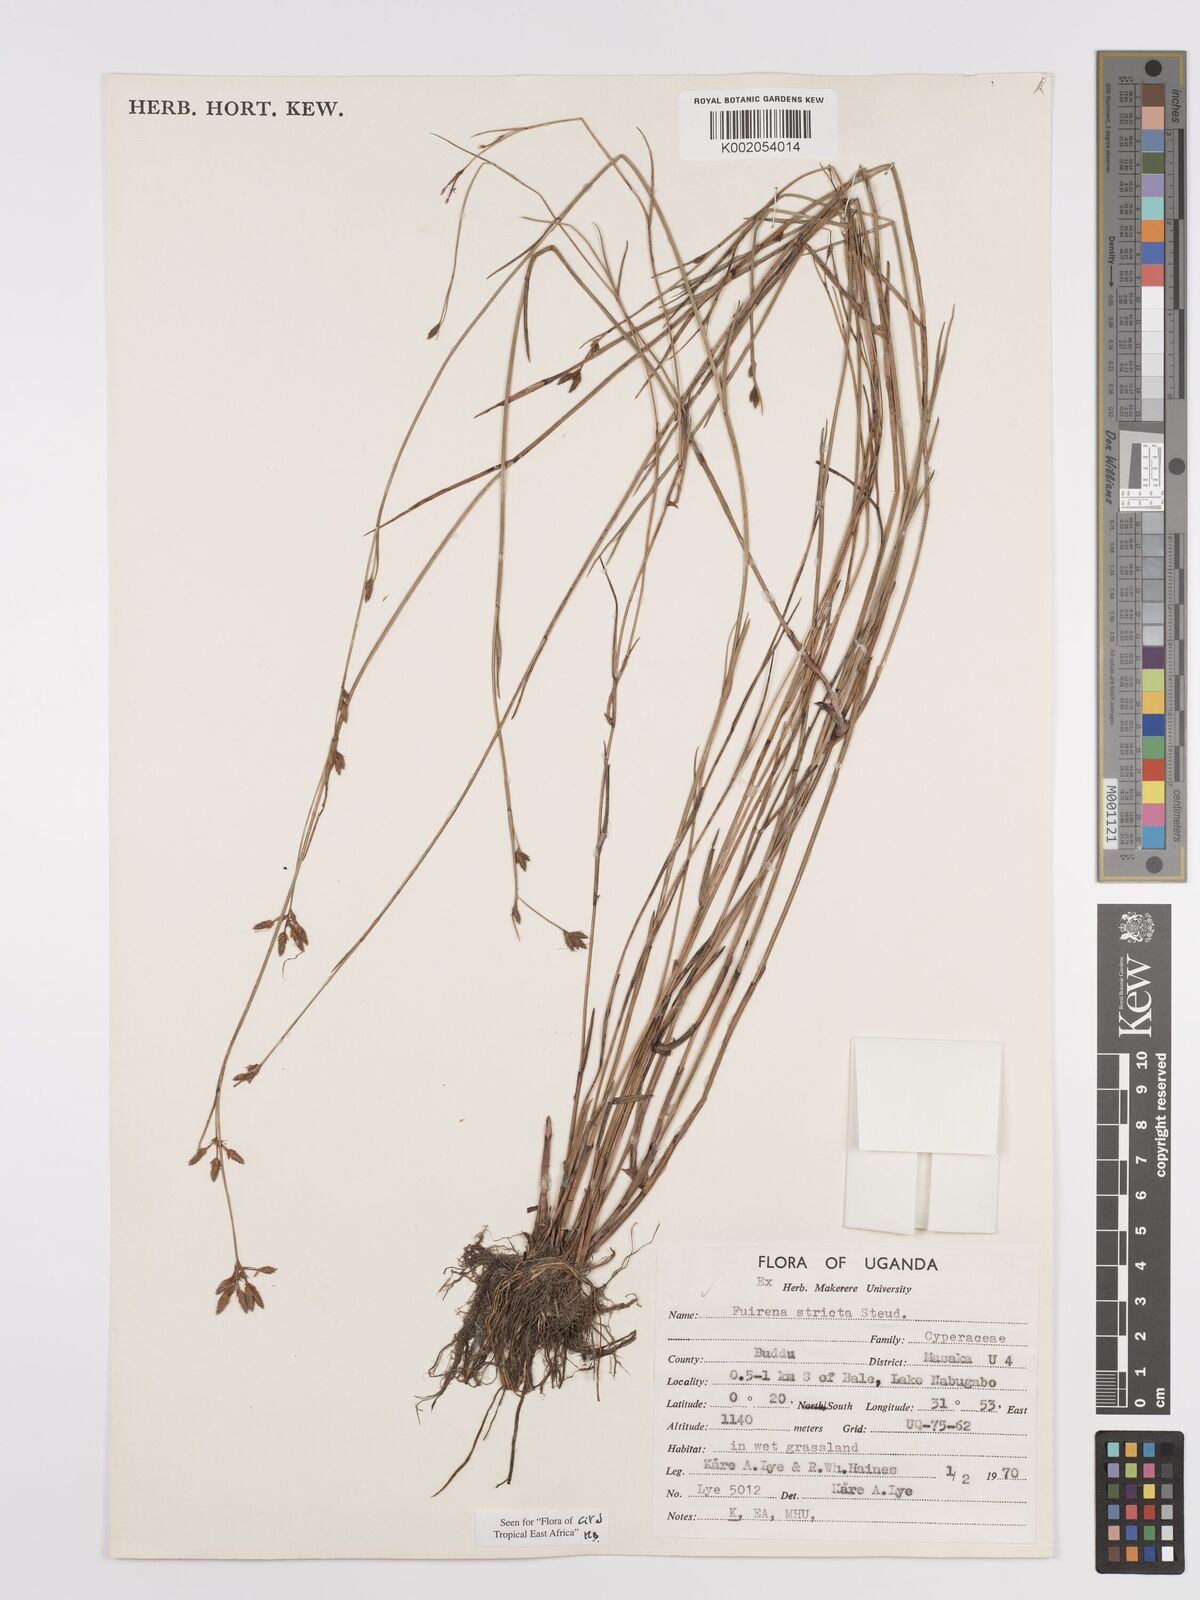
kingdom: Plantae
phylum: Tracheophyta
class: Liliopsida
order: Poales
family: Cyperaceae
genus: Fuirena
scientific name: Fuirena stricta
